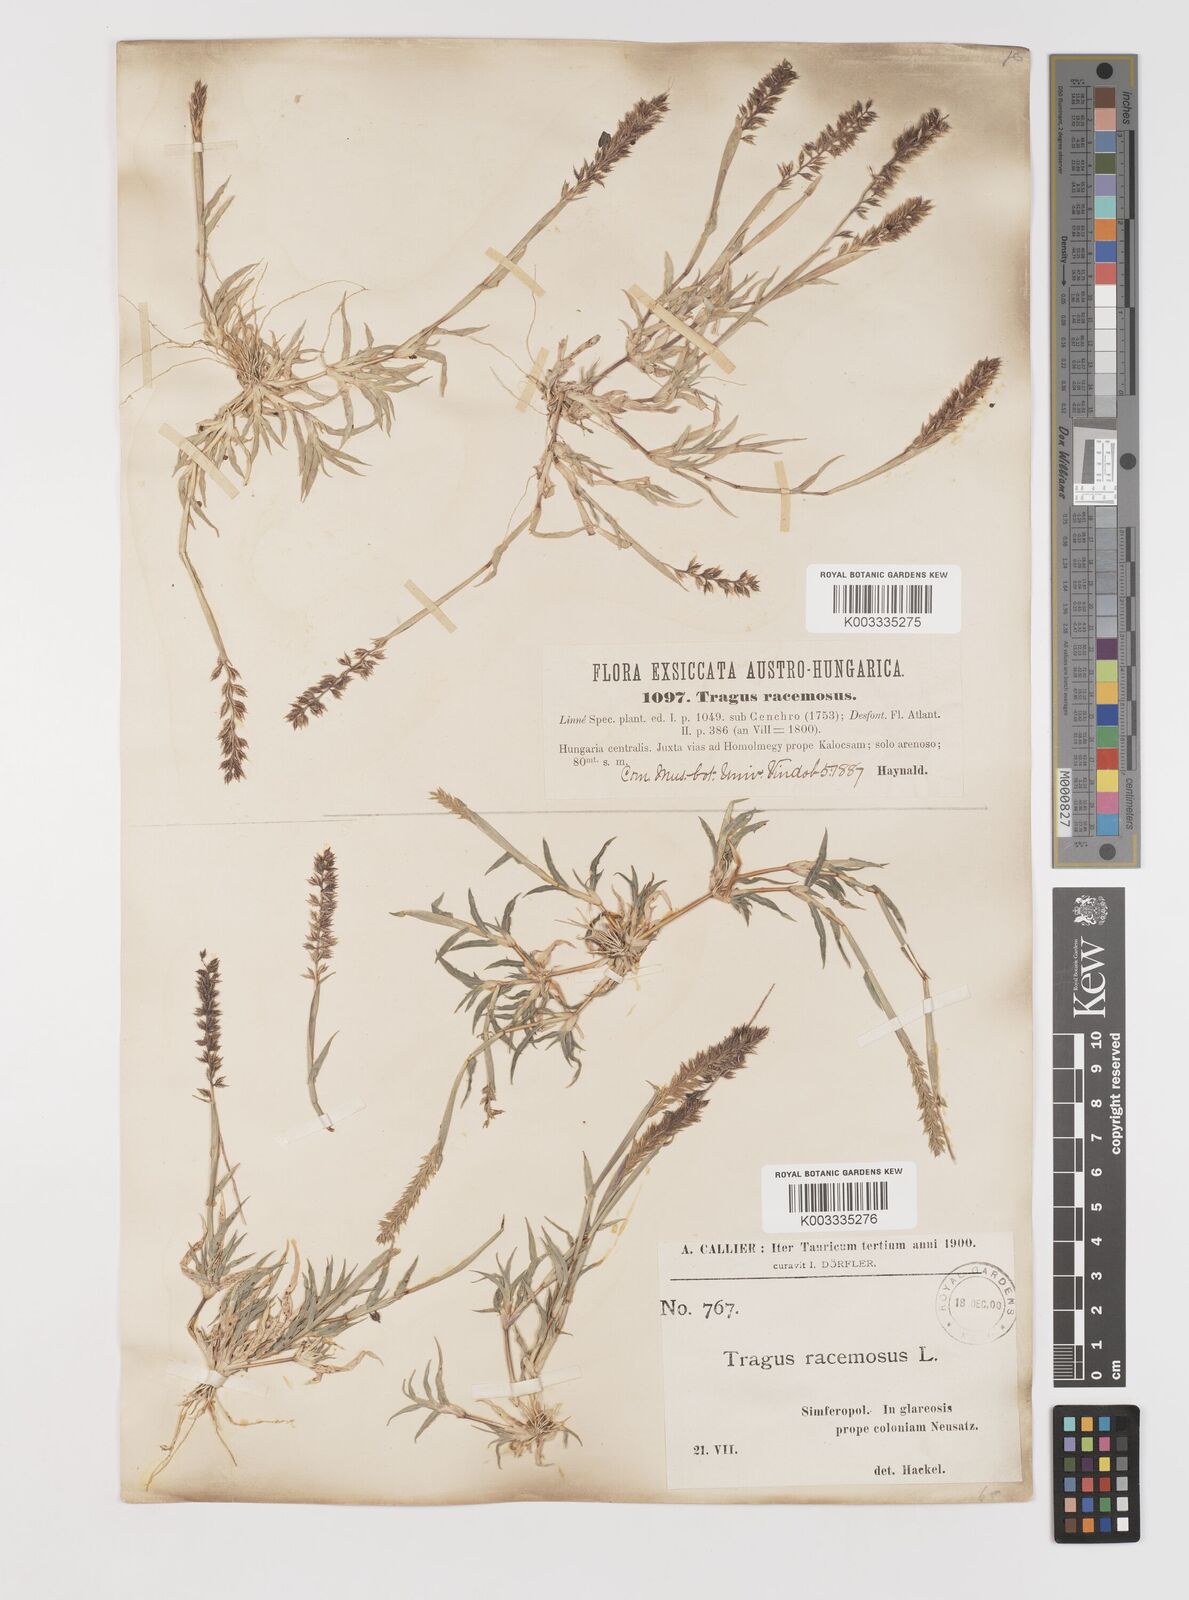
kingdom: Plantae
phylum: Tracheophyta
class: Liliopsida
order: Poales
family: Poaceae
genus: Tragus
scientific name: Tragus racemosus
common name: European bur-grass
